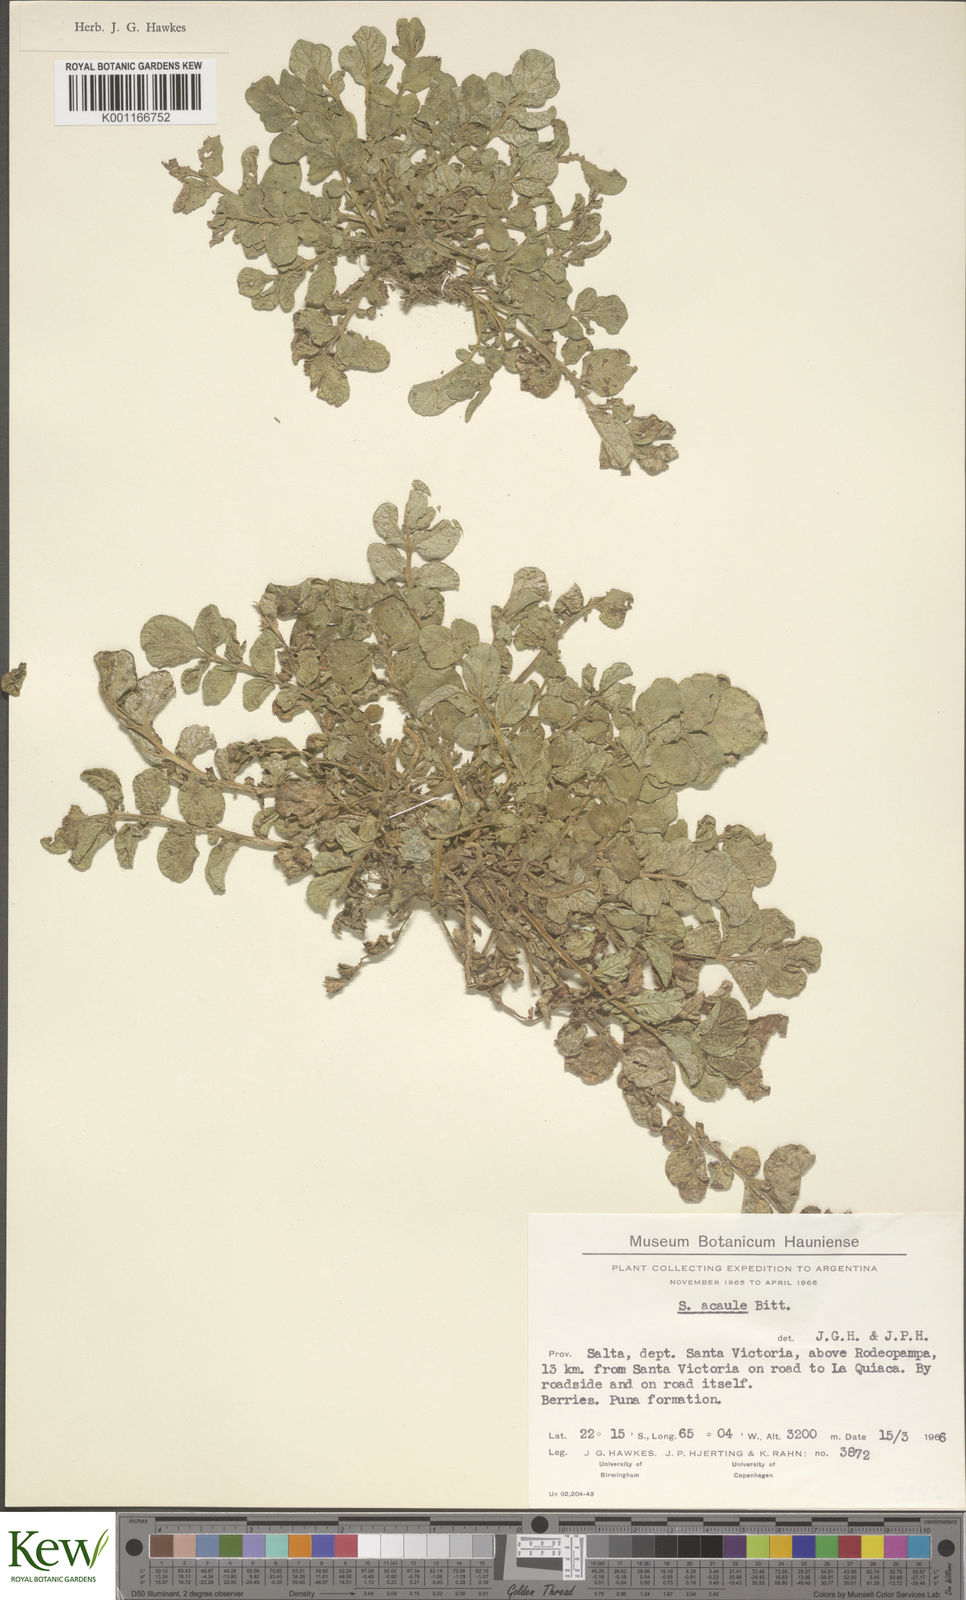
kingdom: Plantae
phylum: Tracheophyta
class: Magnoliopsida
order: Solanales
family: Solanaceae
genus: Solanum
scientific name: Solanum acaule
